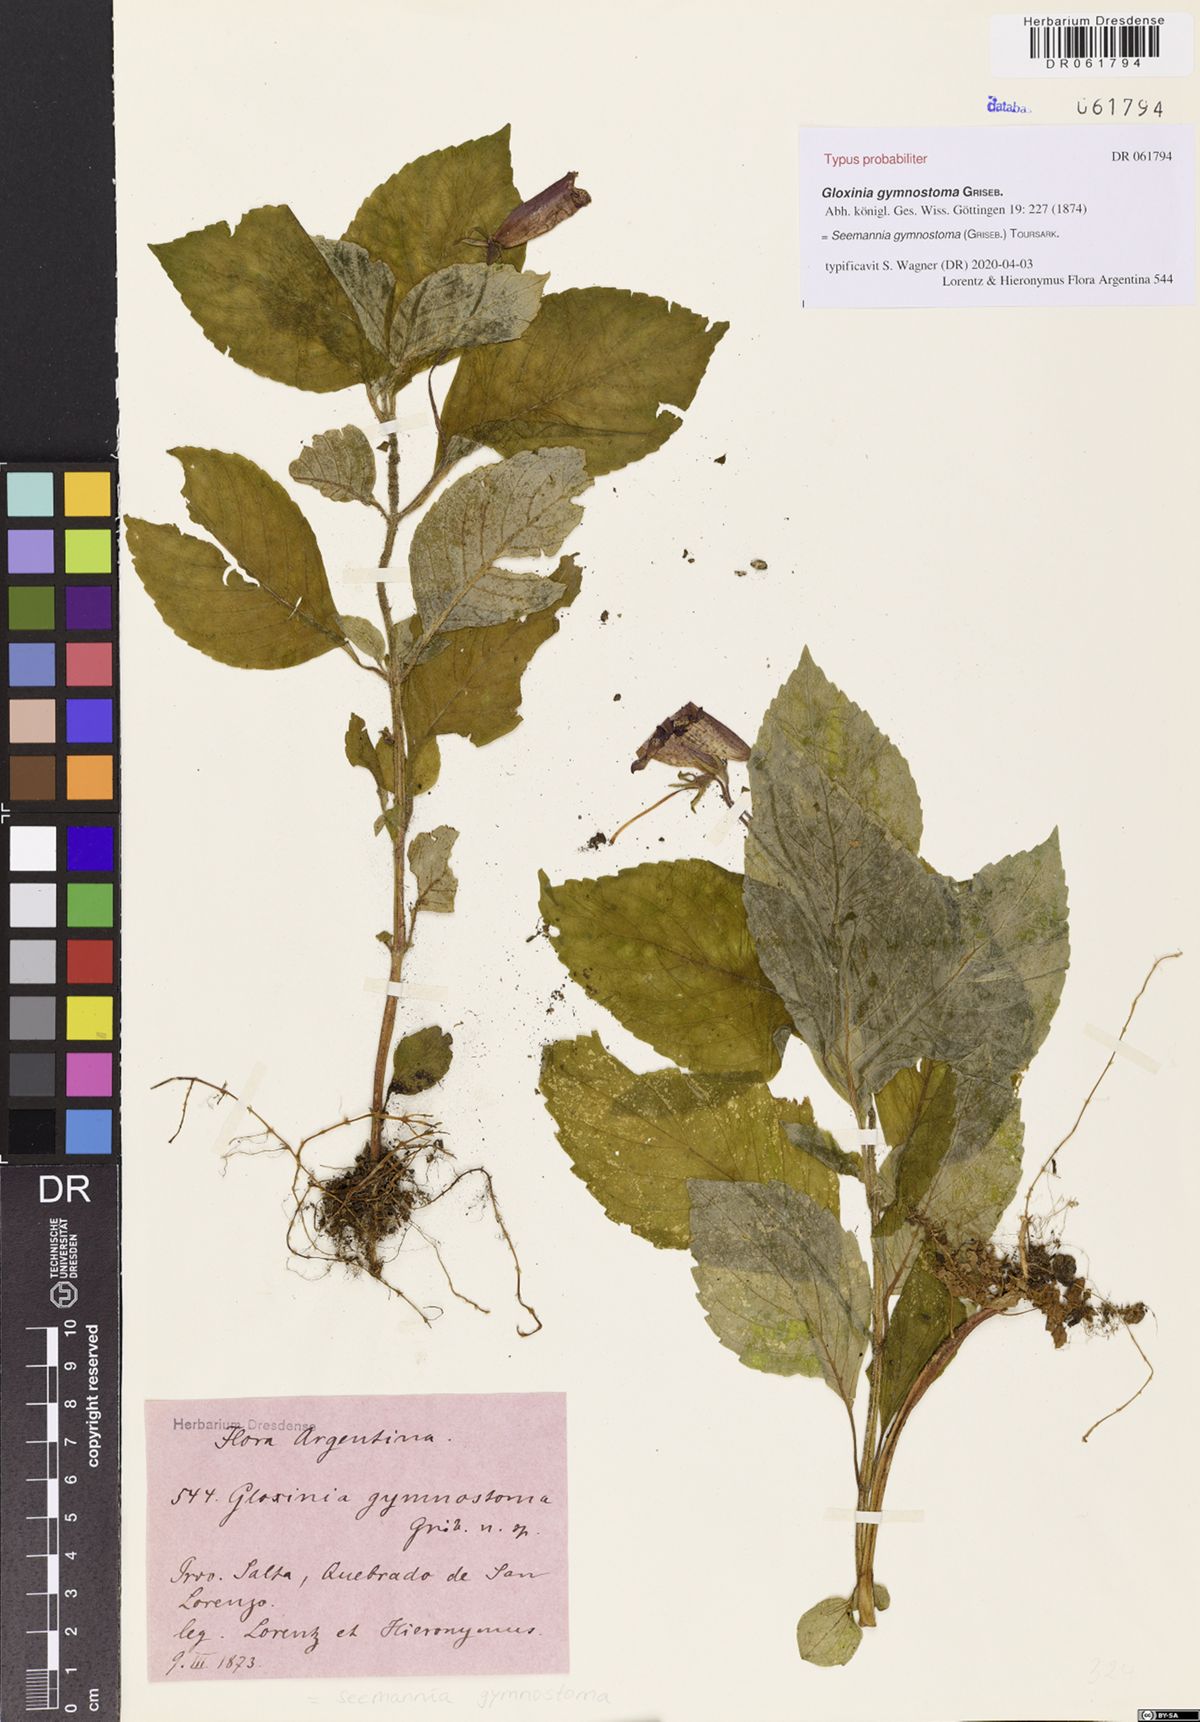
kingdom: Plantae
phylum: Tracheophyta
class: Magnoliopsida
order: Lamiales
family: Gesneriaceae
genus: Seemannia
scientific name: Seemannia gymnostoma
